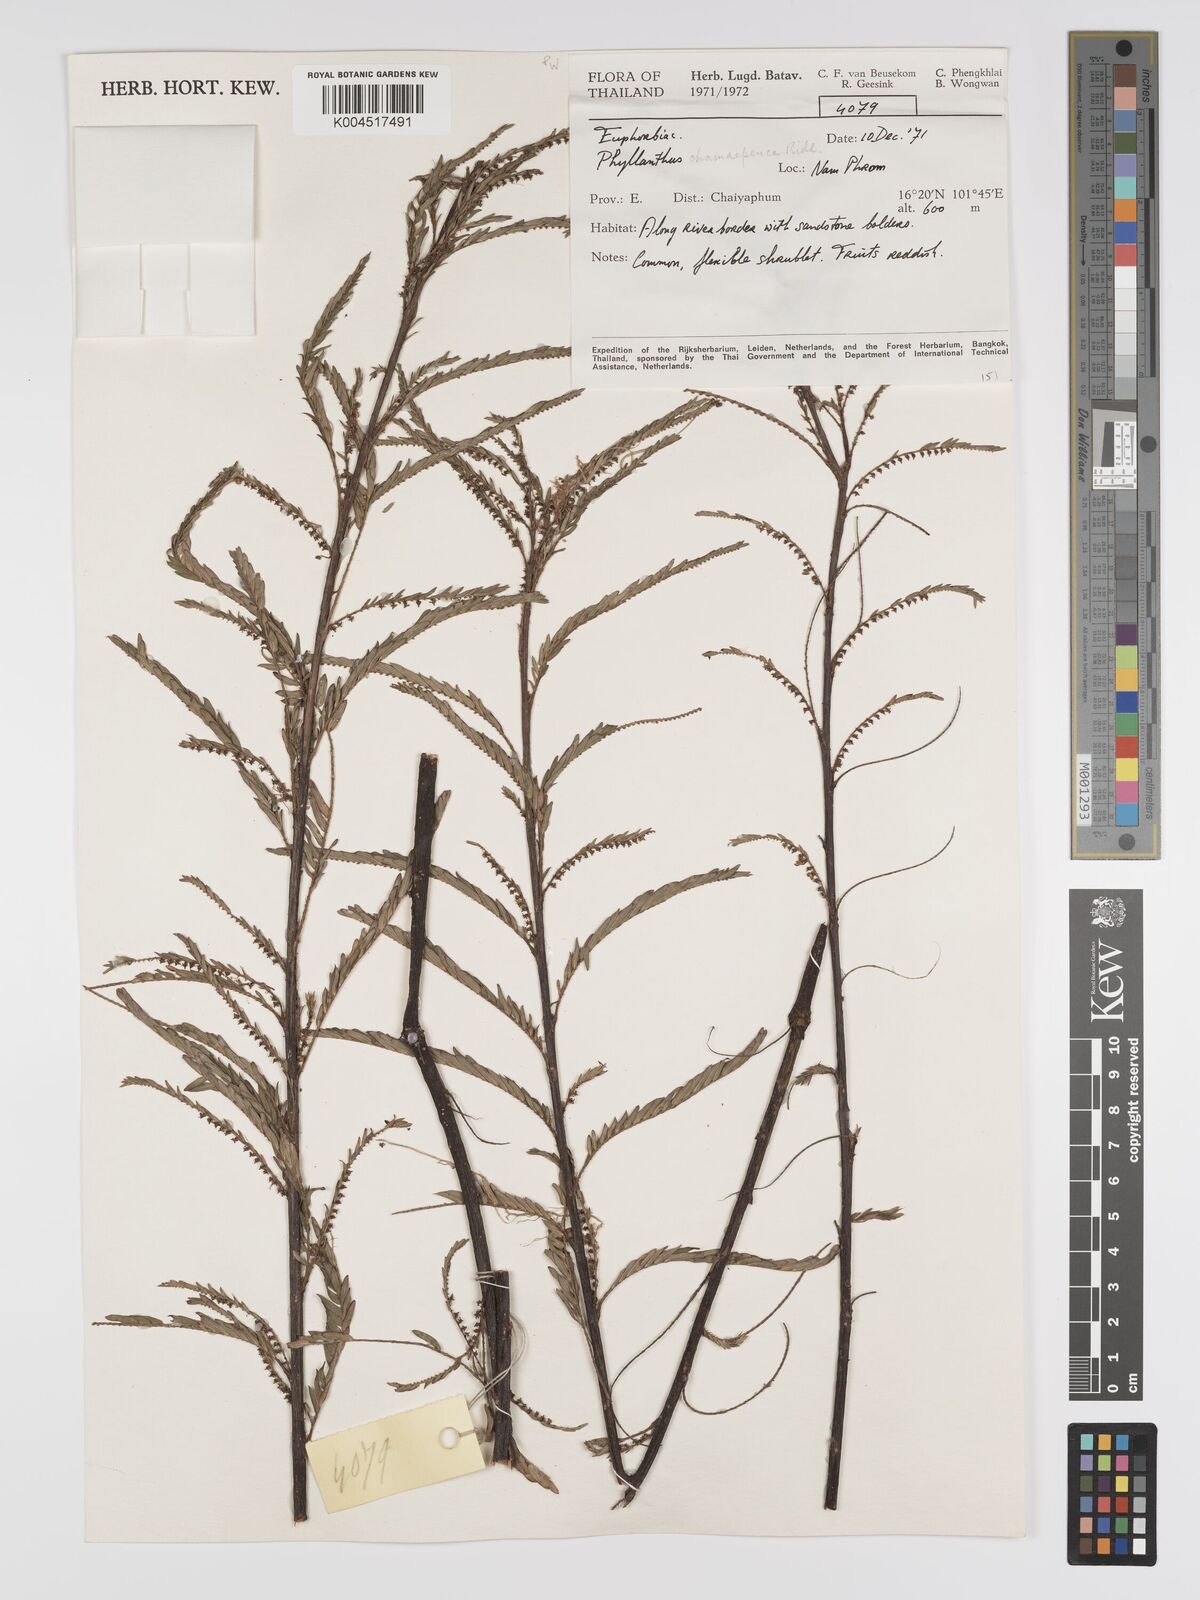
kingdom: Plantae
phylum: Tracheophyta
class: Magnoliopsida
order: Malpighiales
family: Phyllanthaceae
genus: Phyllanthus
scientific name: Phyllanthus chamaepeuce
